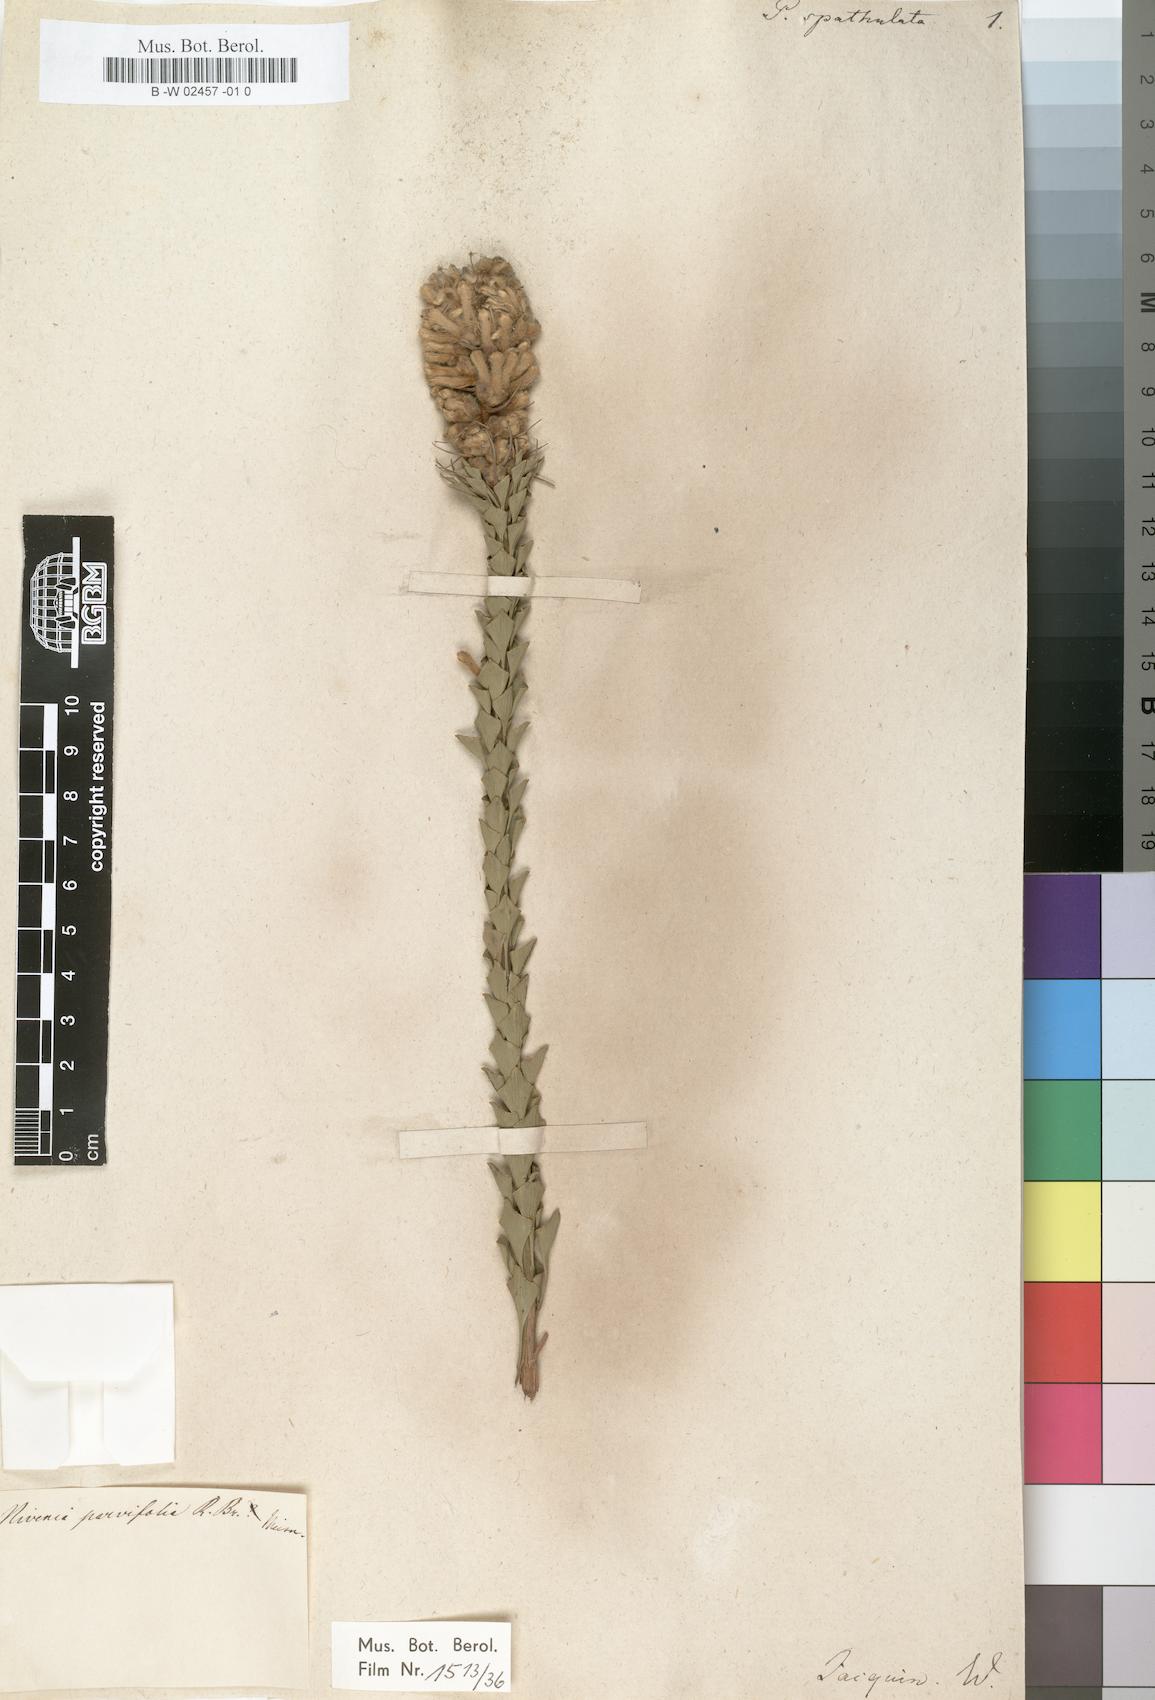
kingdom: Plantae
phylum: Tracheophyta
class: Magnoliopsida
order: Proteales
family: Proteaceae
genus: Protea
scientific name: Protea
